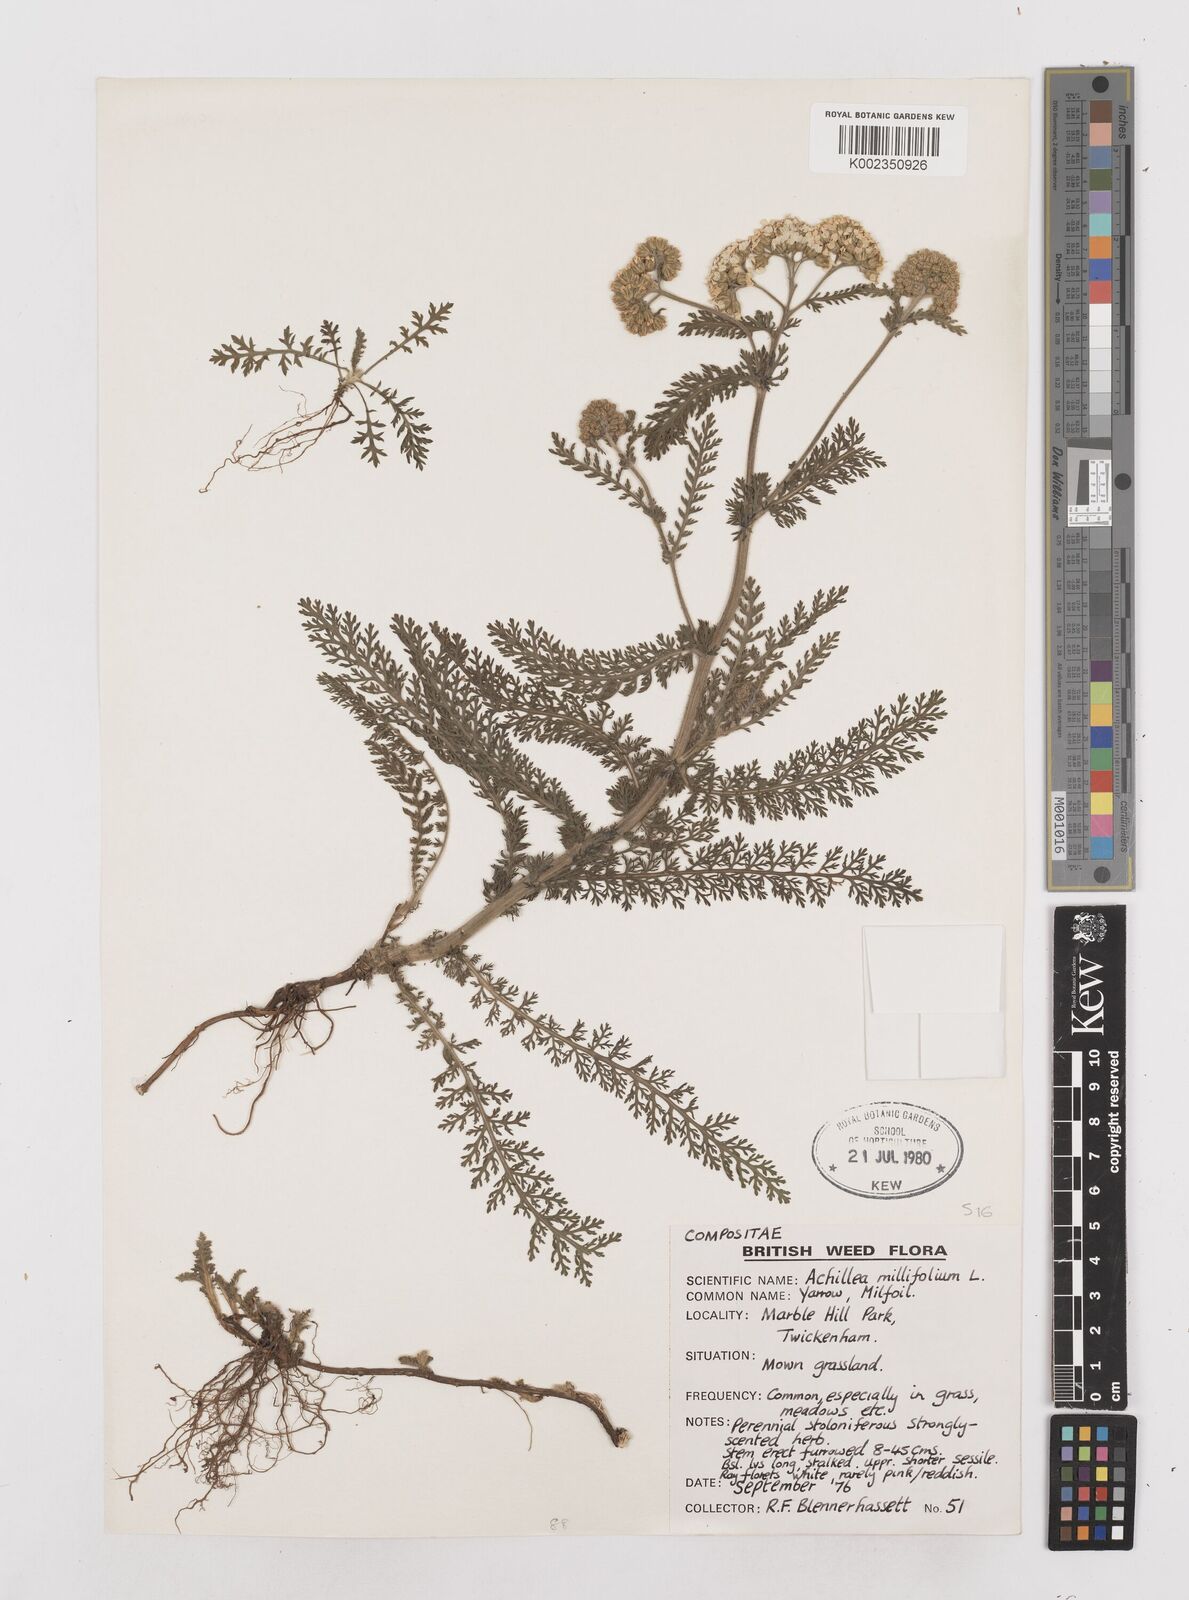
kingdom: Plantae
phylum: Tracheophyta
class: Magnoliopsida
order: Asterales
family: Asteraceae
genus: Achillea
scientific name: Achillea distans
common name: Tall yarrow
